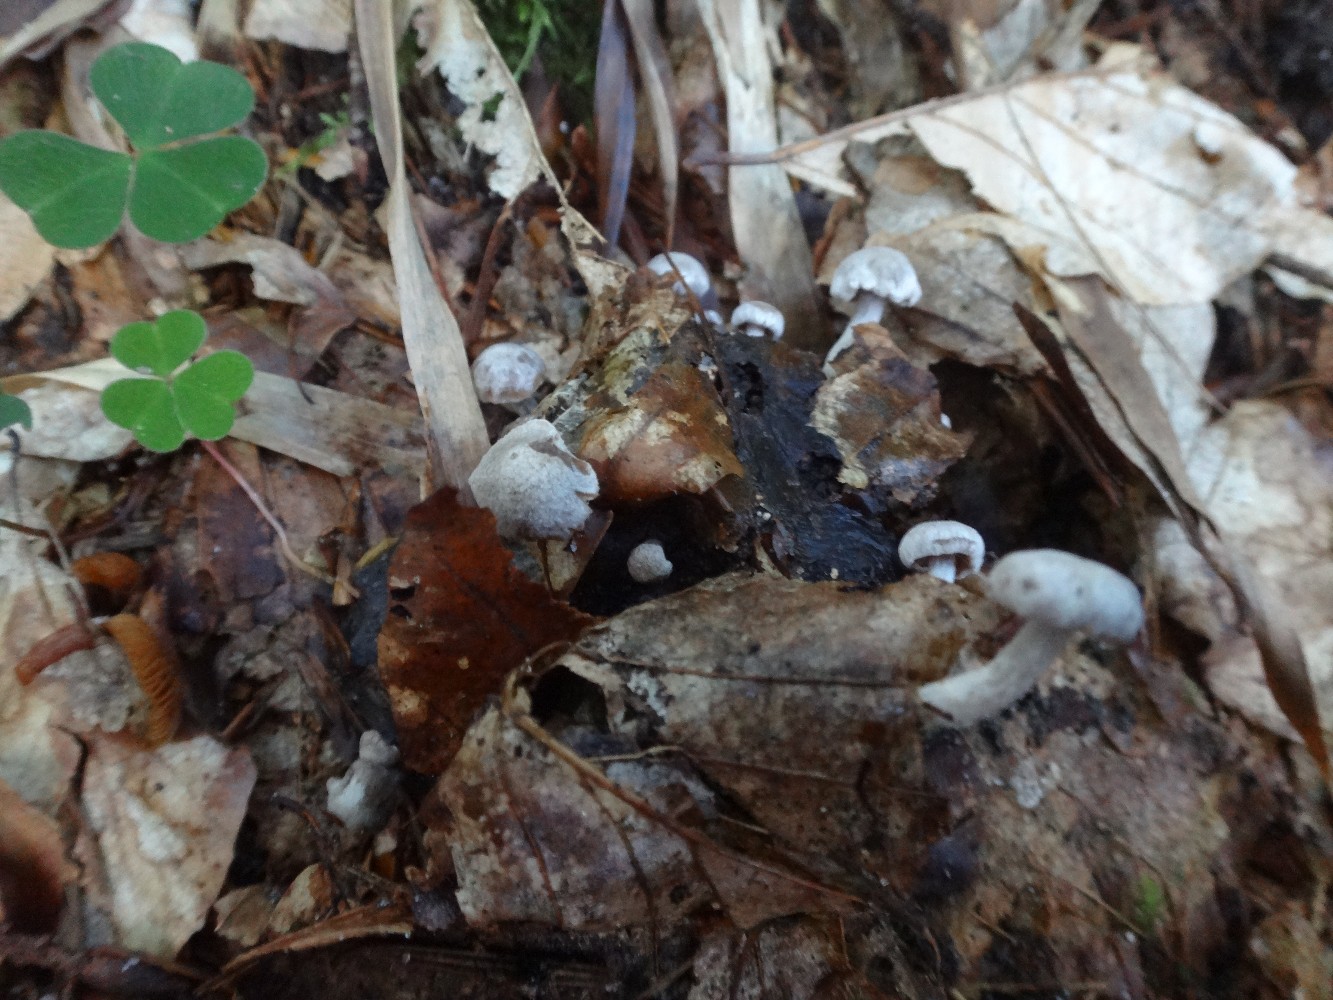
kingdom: Fungi
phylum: Basidiomycota
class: Agaricomycetes
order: Agaricales
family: Lyophyllaceae
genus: Asterophora
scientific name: Asterophora parasitica
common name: grå snyltehat
